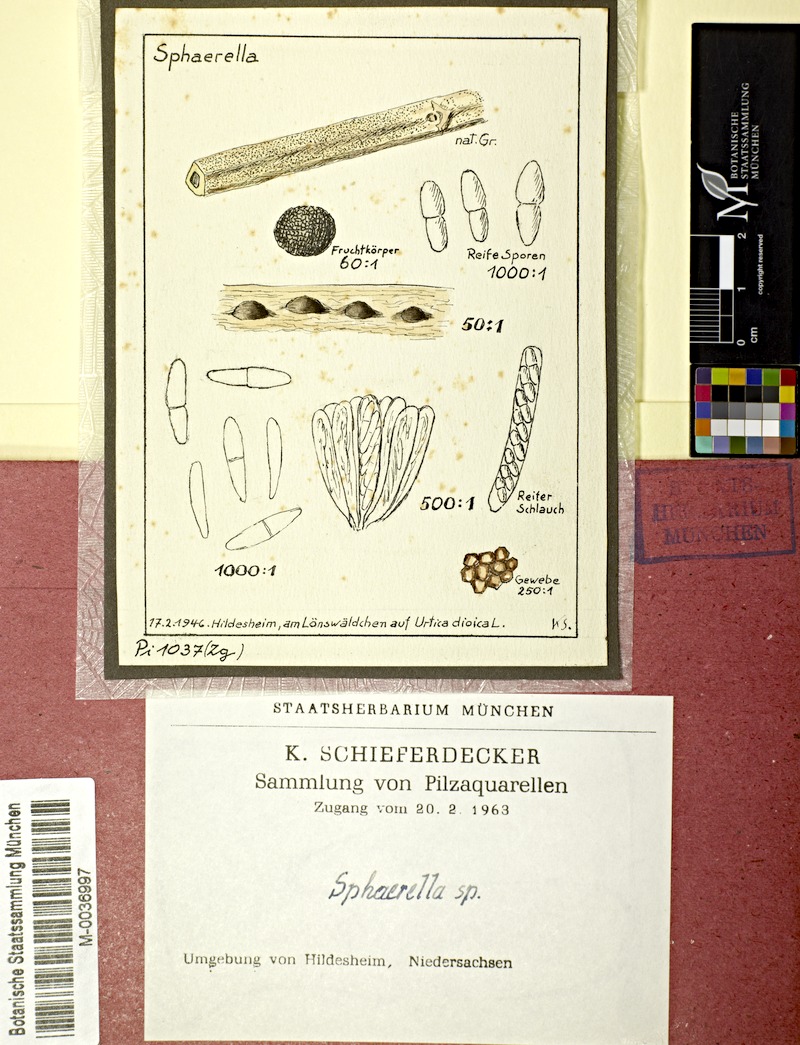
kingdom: Plantae
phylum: Tracheophyta
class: Magnoliopsida
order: Rosales
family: Urticaceae
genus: Urtica
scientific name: Urtica dioica
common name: Common nettle
